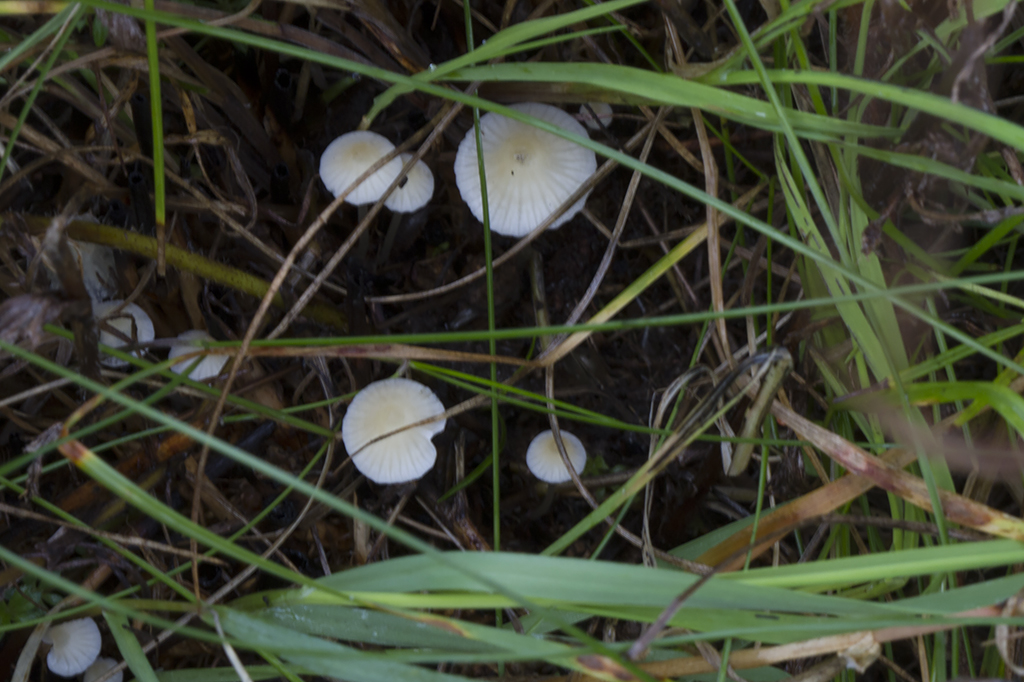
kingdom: Fungi
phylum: Basidiomycota
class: Agaricomycetes
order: Agaricales
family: Mycenaceae
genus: Atheniella
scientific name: Atheniella flavoalba
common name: gulhvid huesvamp
